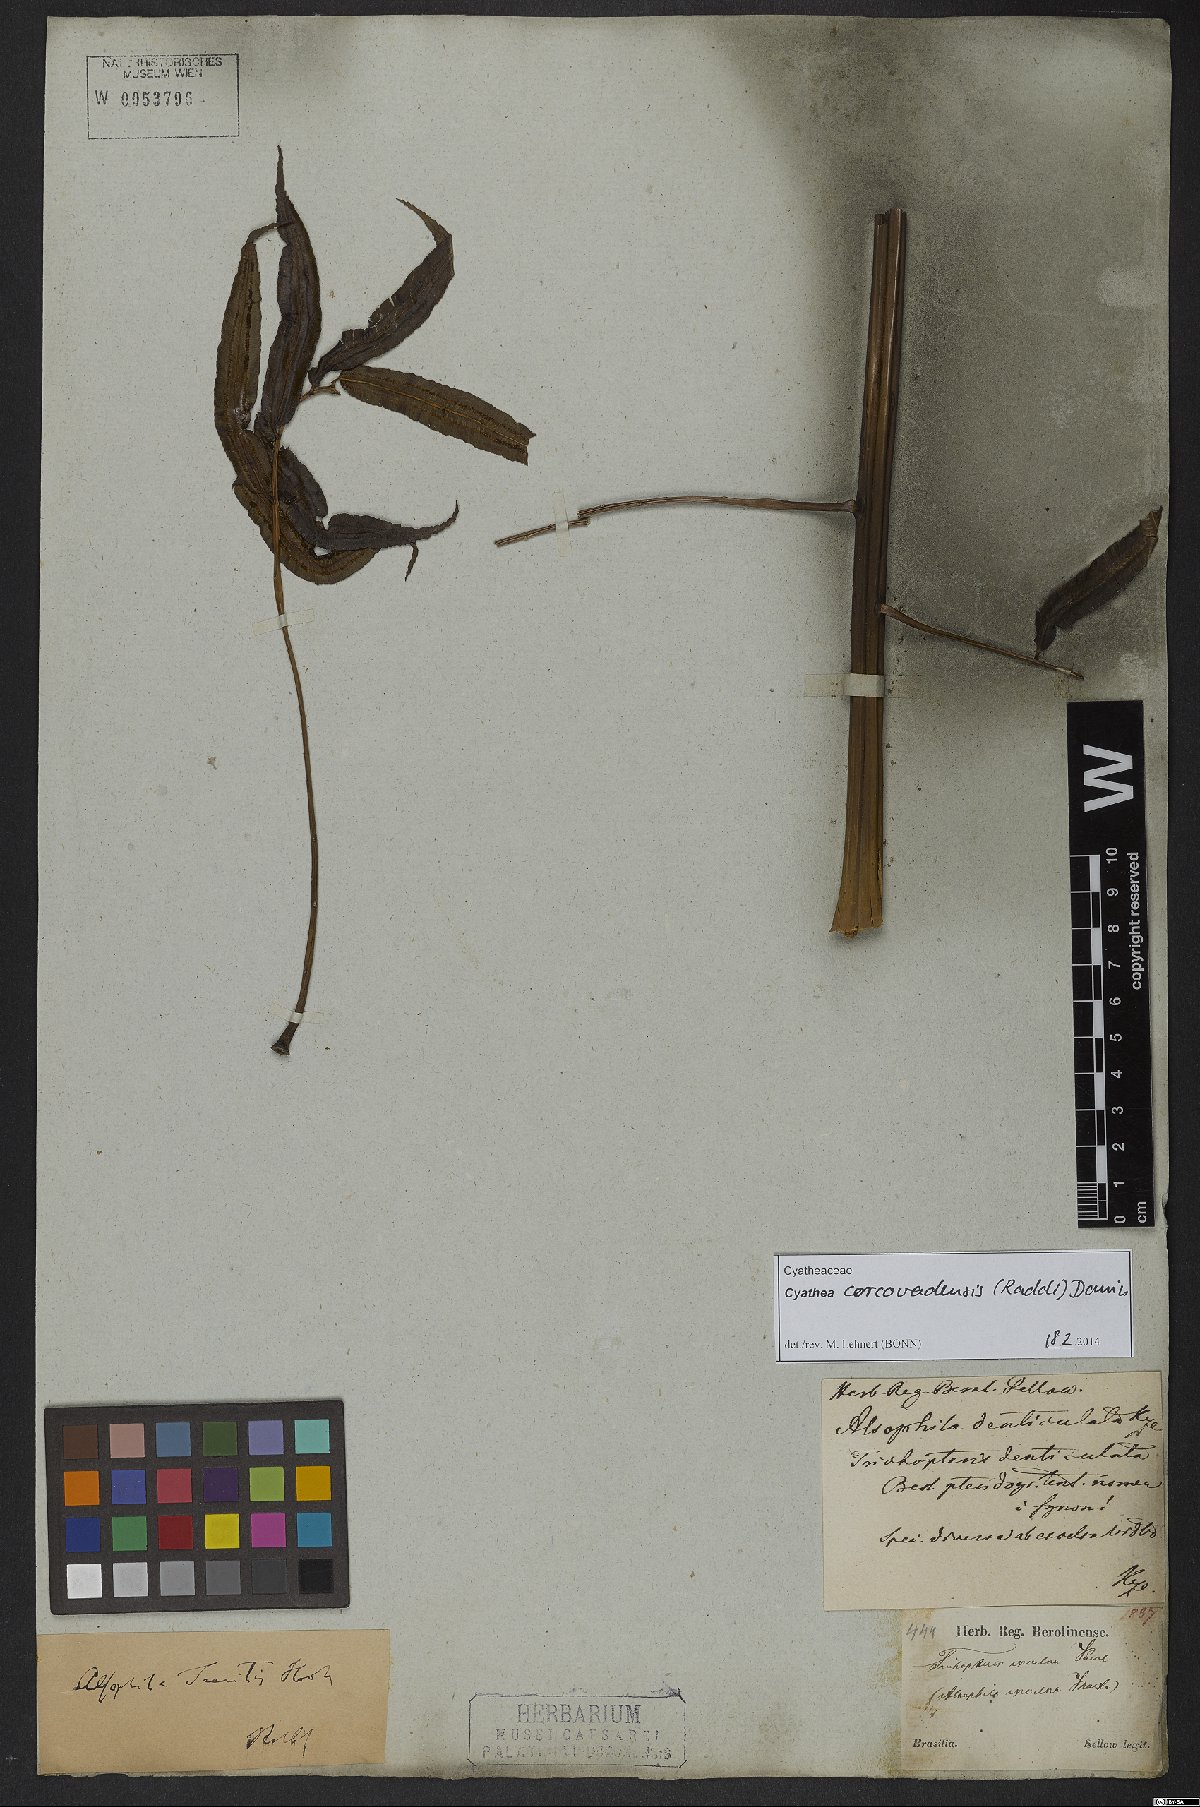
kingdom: Plantae
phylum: Tracheophyta
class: Polypodiopsida
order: Cyatheales
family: Cyatheaceae
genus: Cyathea
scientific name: Cyathea corcovadensis
